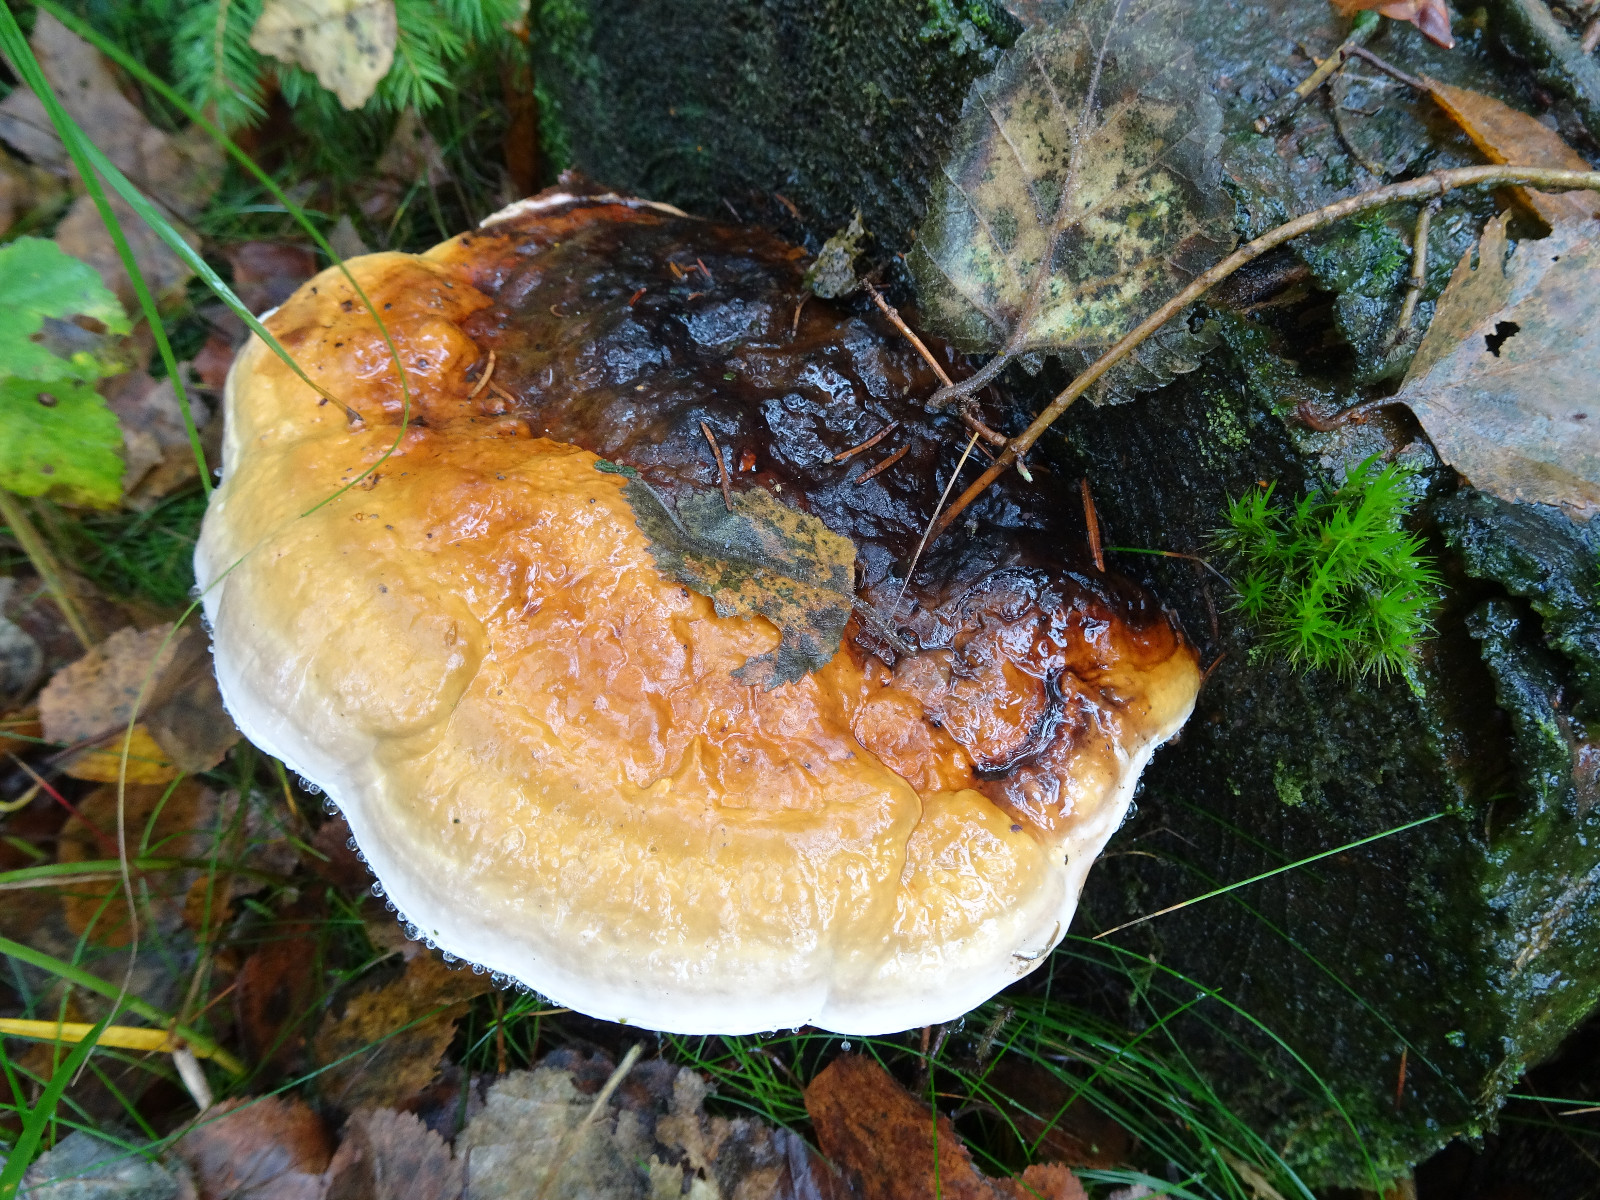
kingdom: Fungi
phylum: Basidiomycota
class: Agaricomycetes
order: Polyporales
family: Fomitopsidaceae
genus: Fomitopsis
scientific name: Fomitopsis pinicola
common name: randbæltet hovporesvamp
